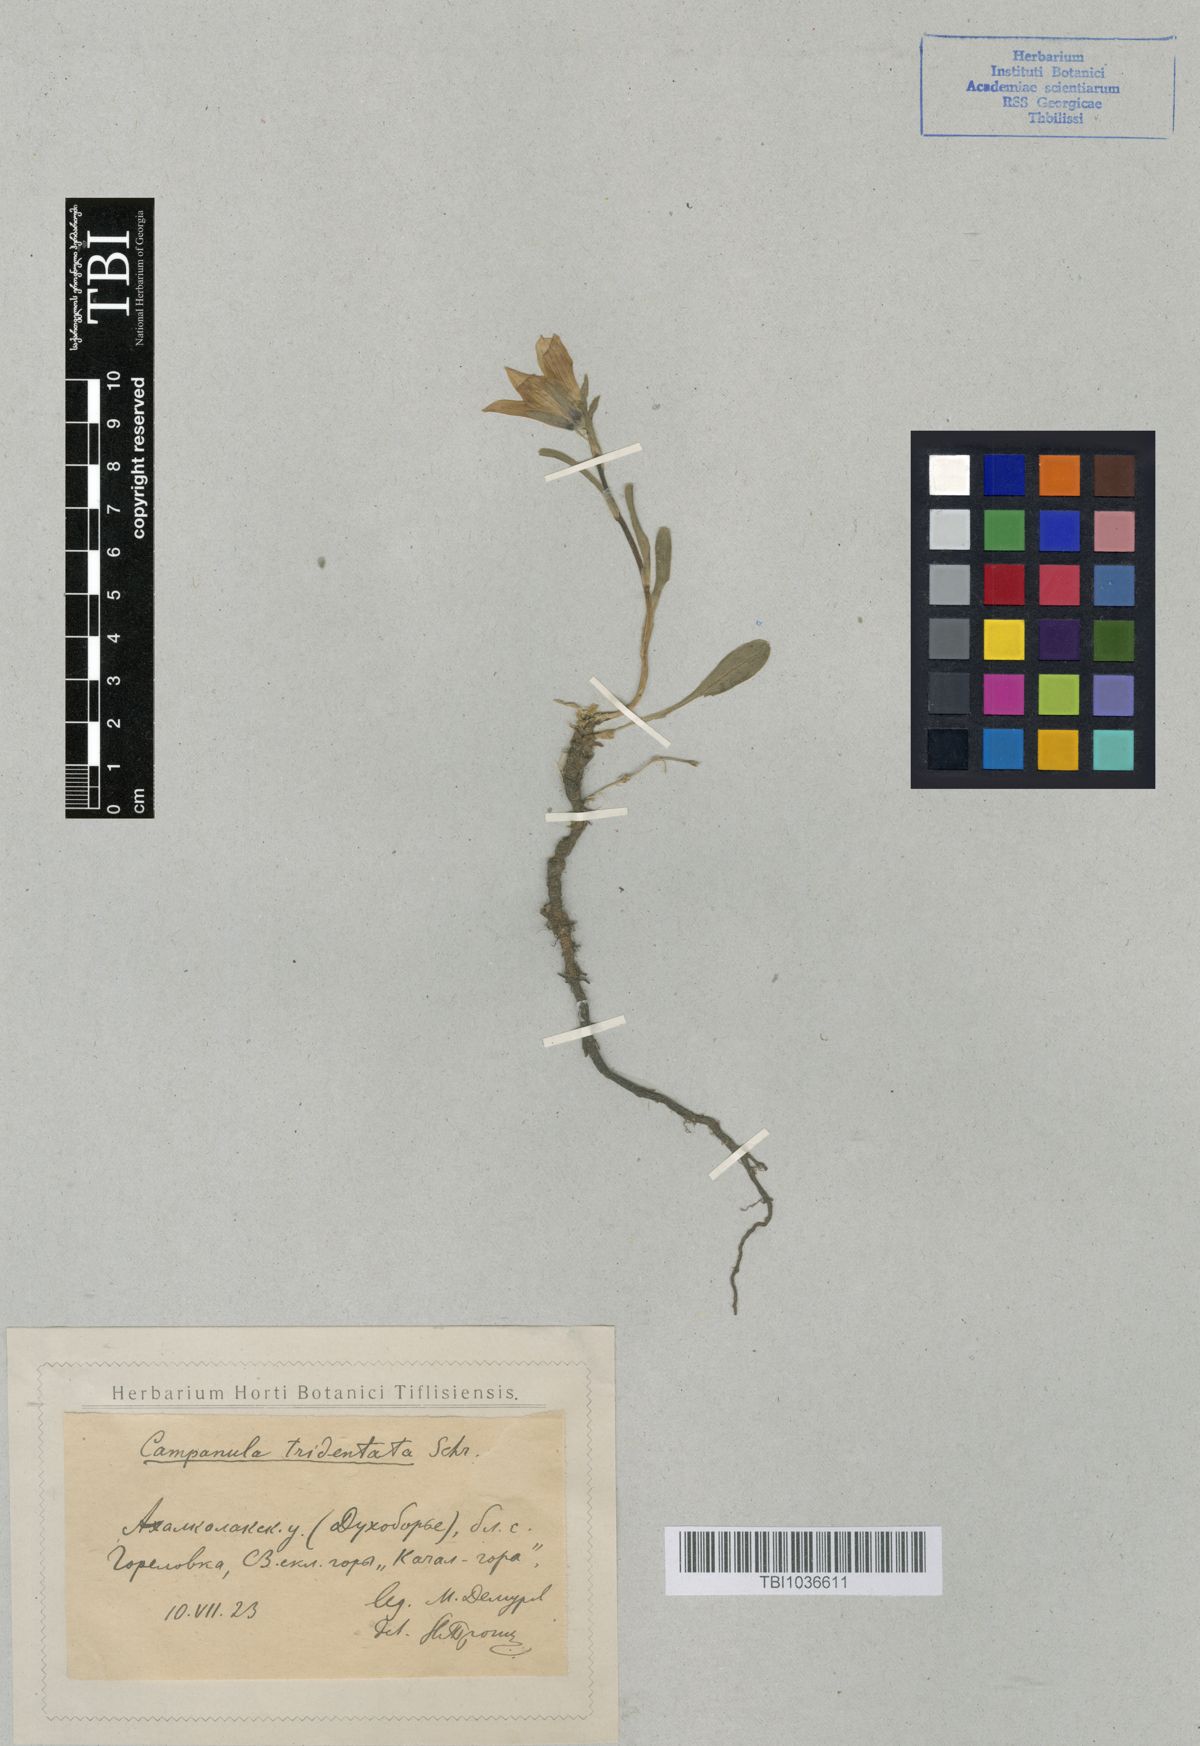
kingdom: Plantae
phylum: Tracheophyta
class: Magnoliopsida
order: Asterales
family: Campanulaceae
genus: Campanula
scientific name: Campanula tridentata
